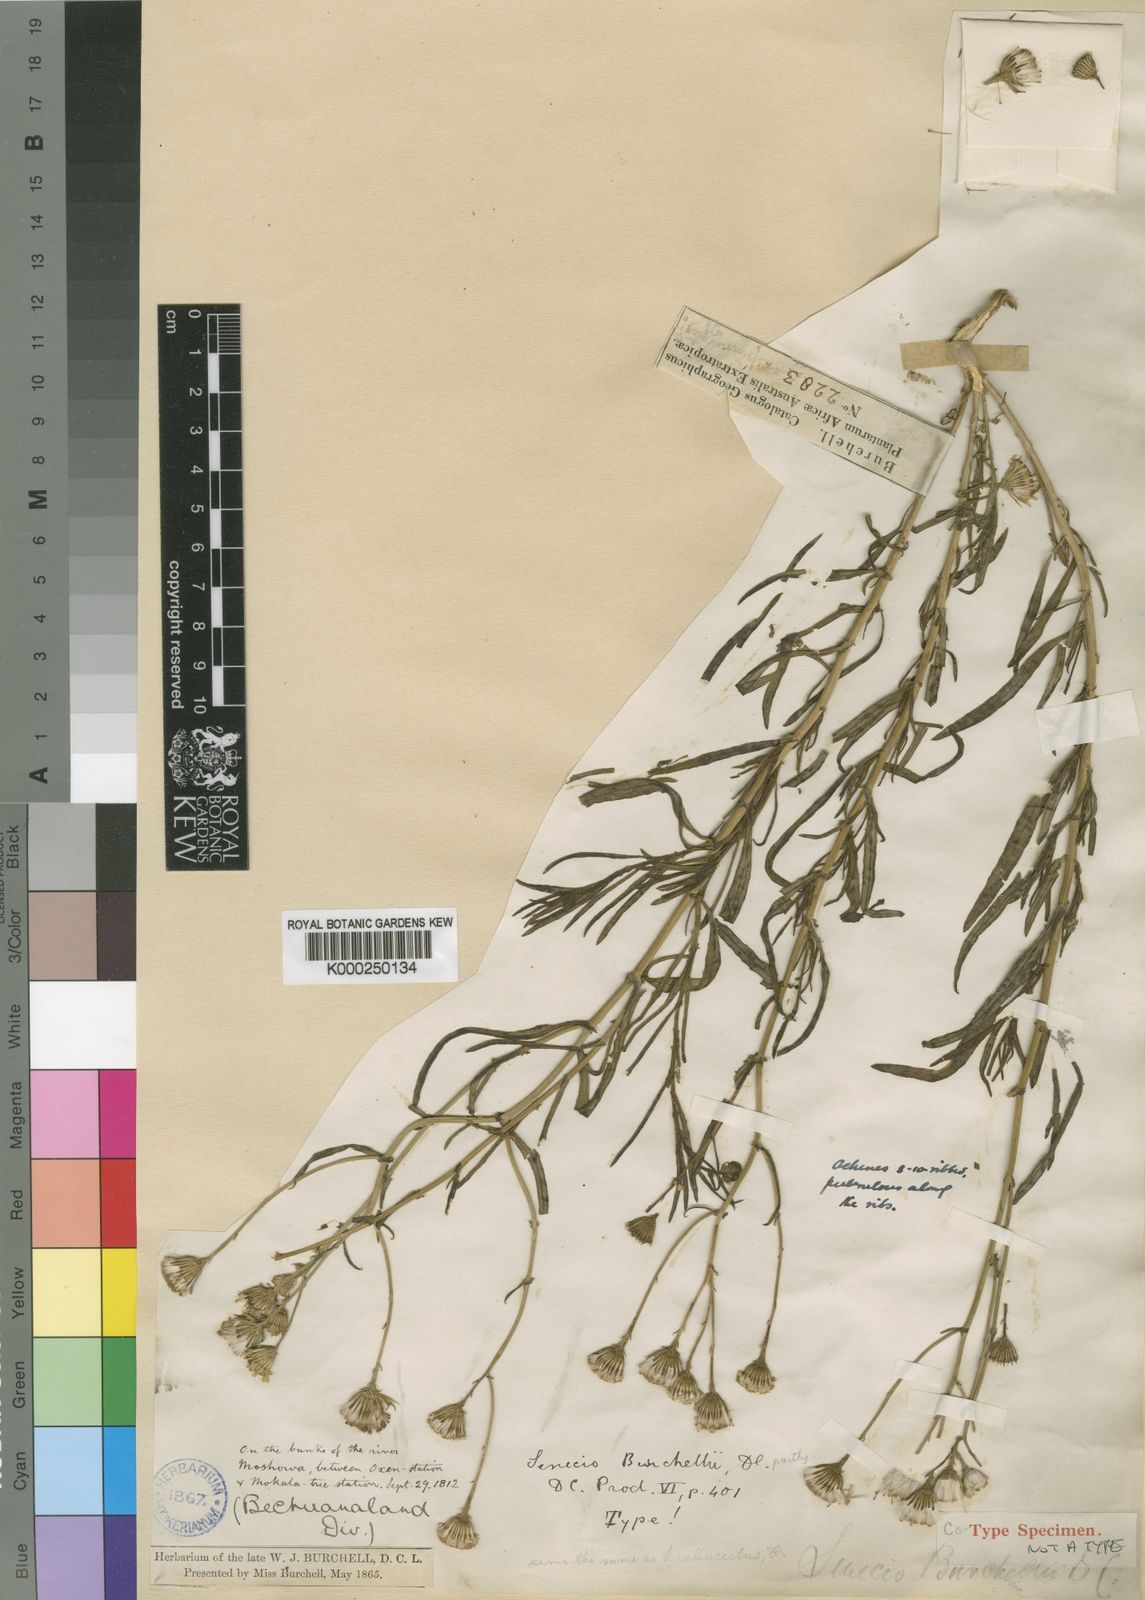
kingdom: Plantae
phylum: Tracheophyta
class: Magnoliopsida
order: Asterales
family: Asteraceae
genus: Senecio
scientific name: Senecio inaequidens
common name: Narrow-leaved ragwort
